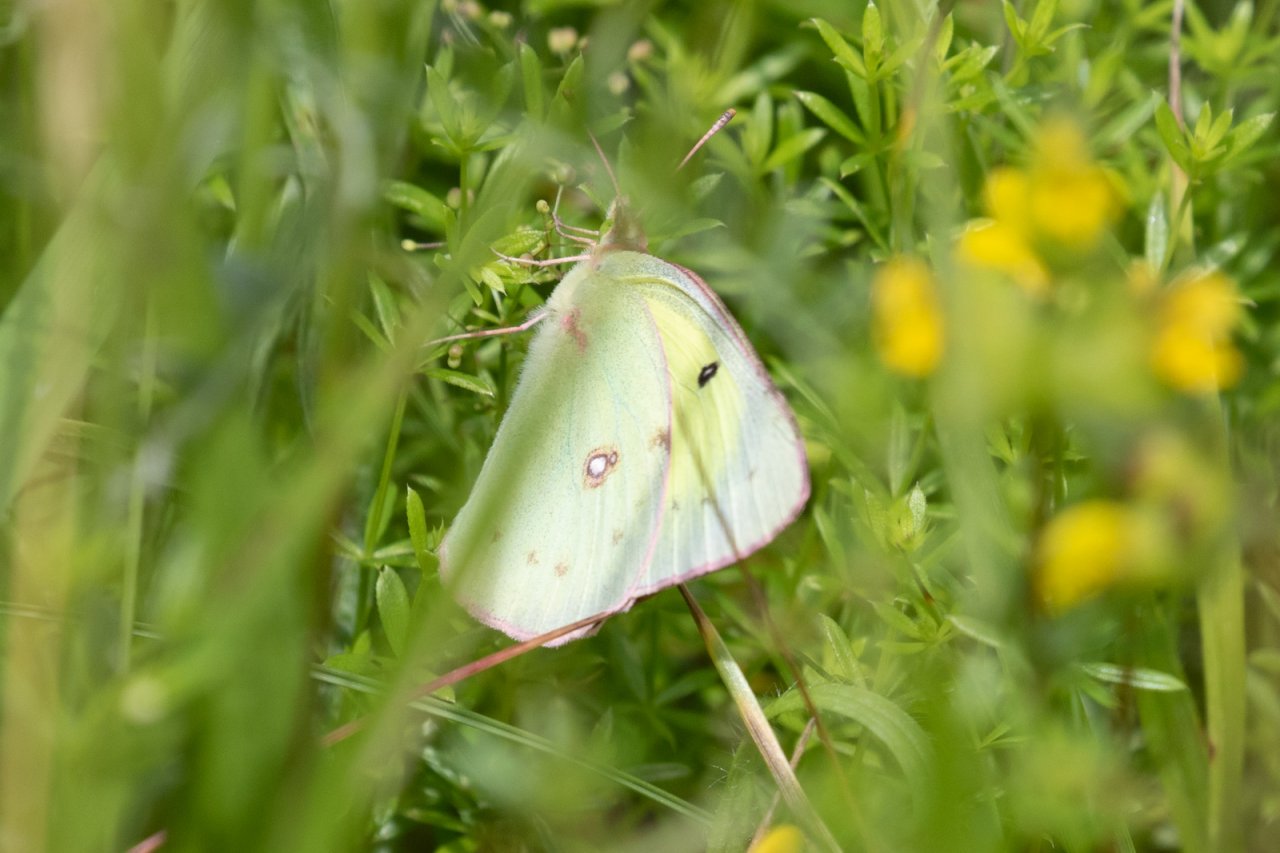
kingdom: Animalia
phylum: Arthropoda
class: Insecta
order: Lepidoptera
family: Pieridae
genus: Colias
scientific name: Colias philodice
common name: Clouded Sulphur
